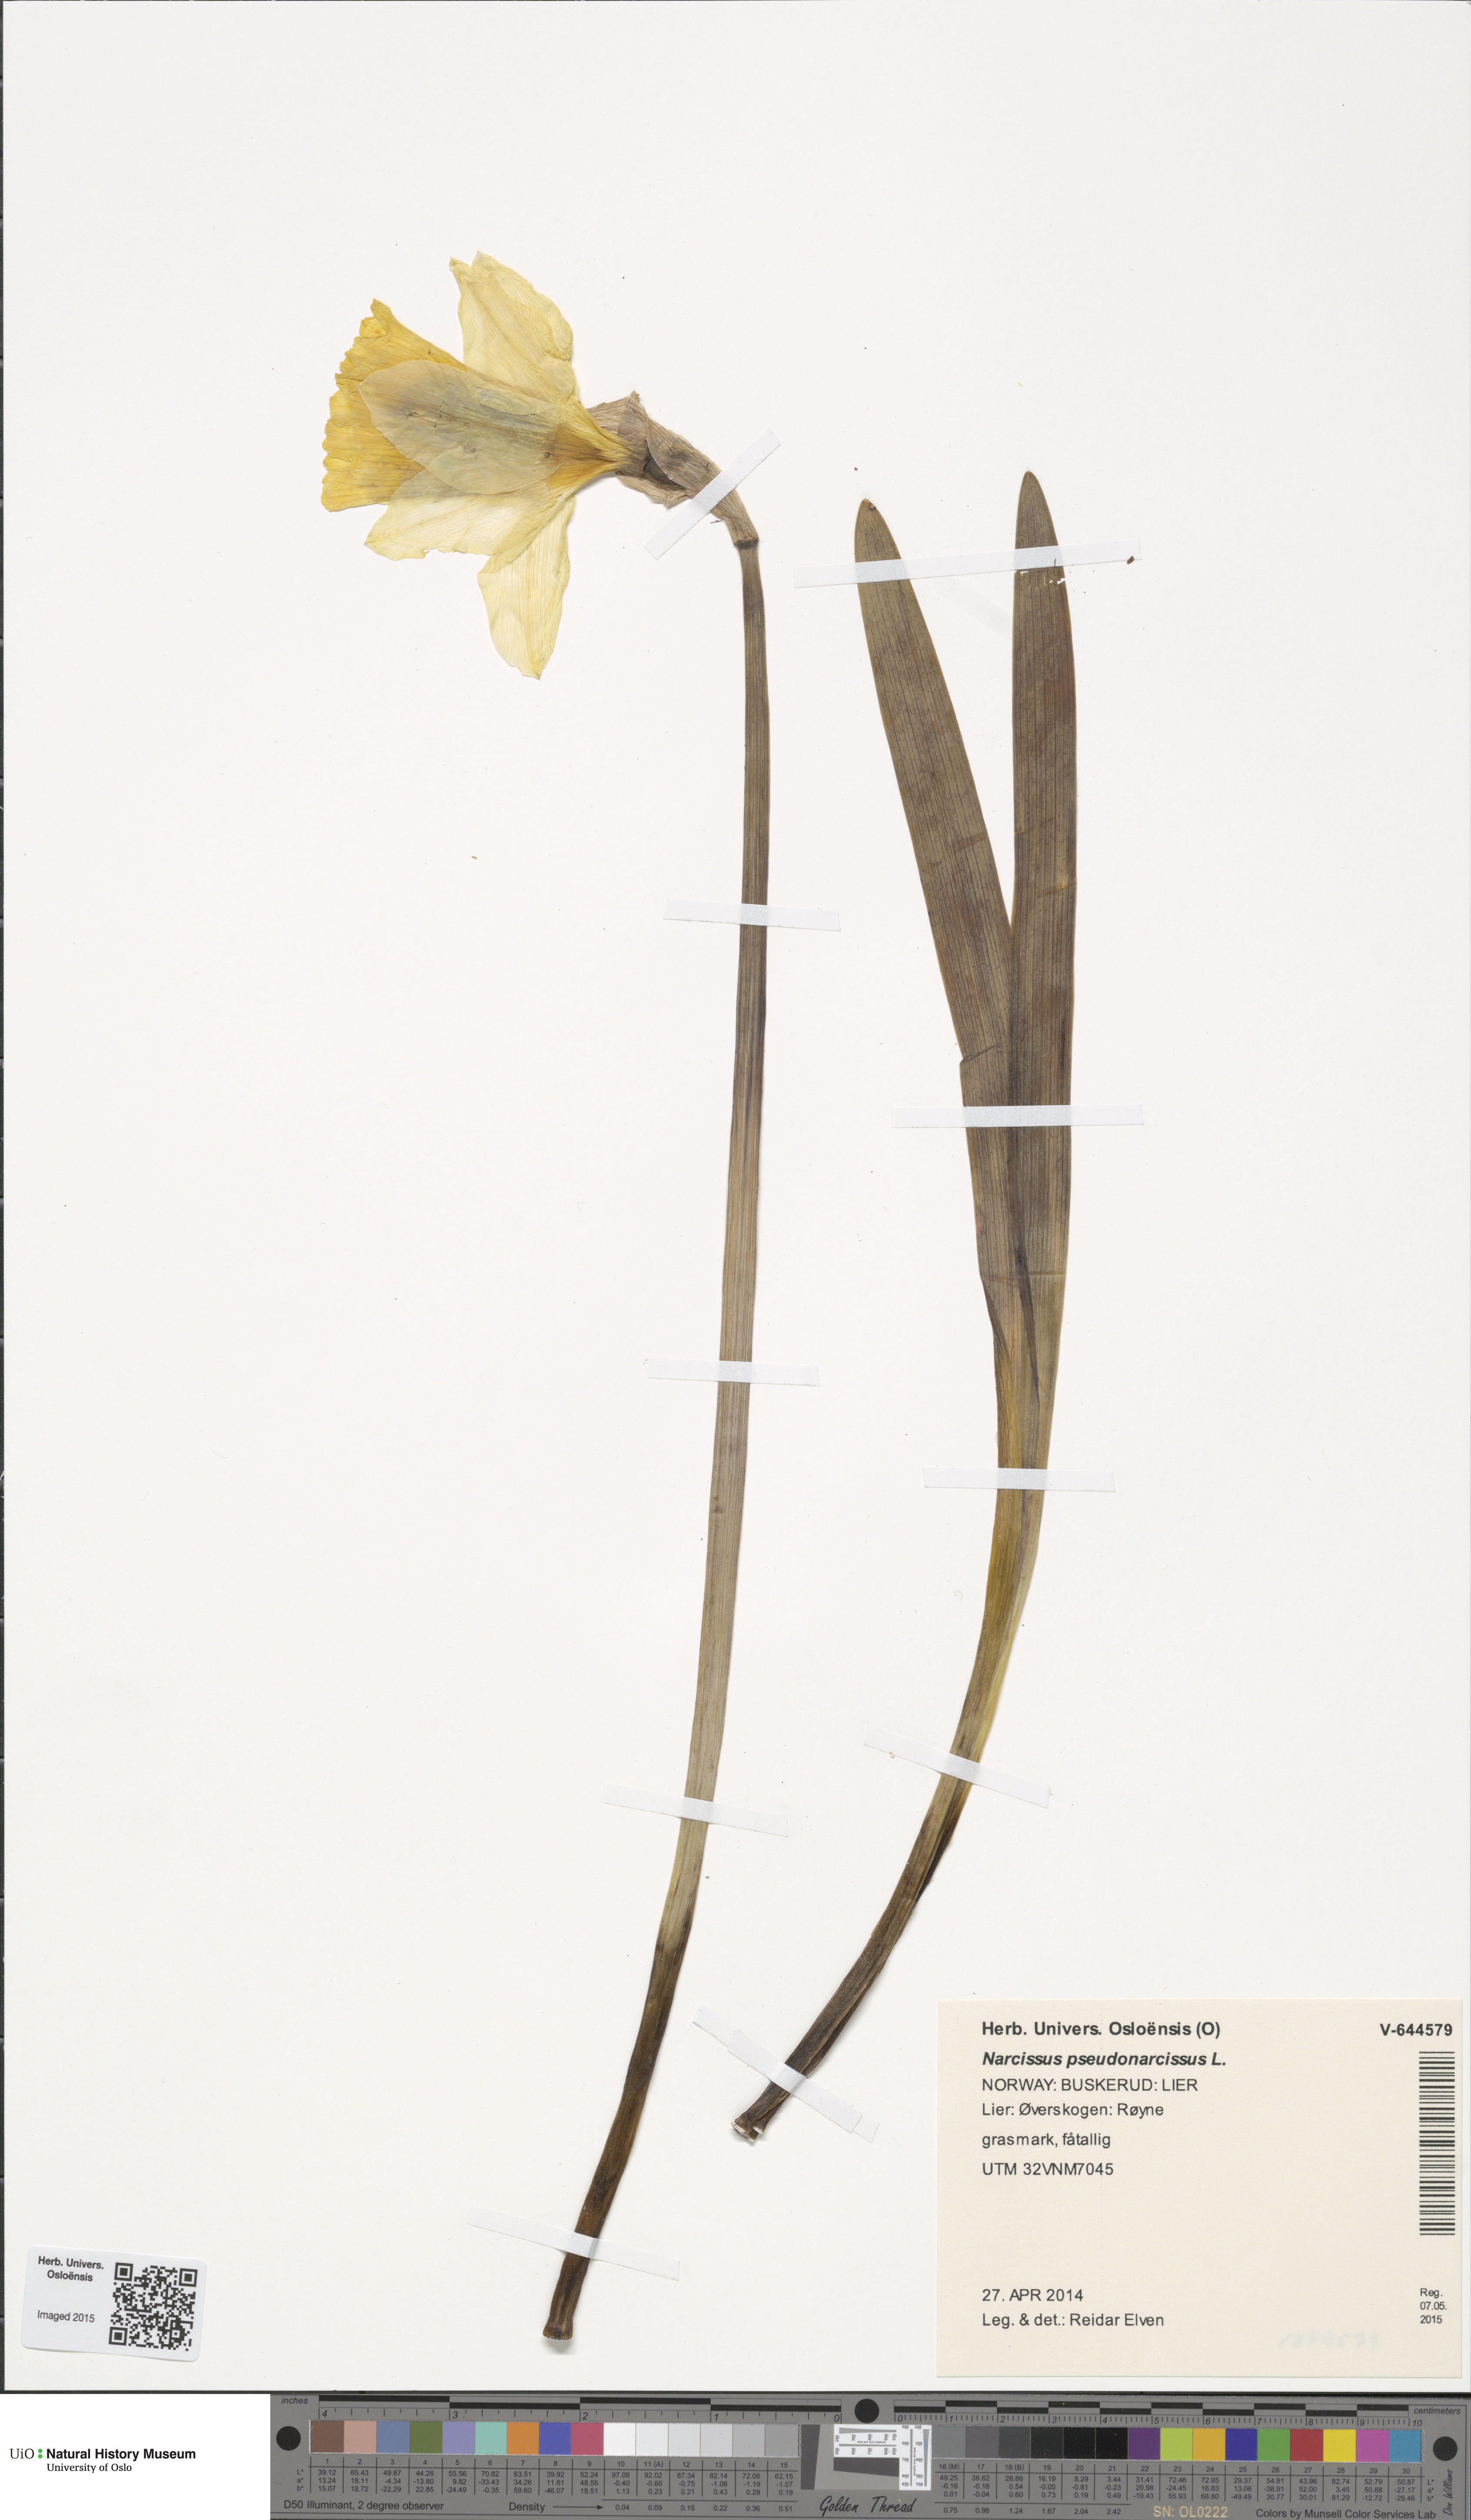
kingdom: Plantae
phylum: Tracheophyta
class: Liliopsida
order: Asparagales
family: Amaryllidaceae
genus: Narcissus
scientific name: Narcissus pseudonarcissus
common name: Daffodil
